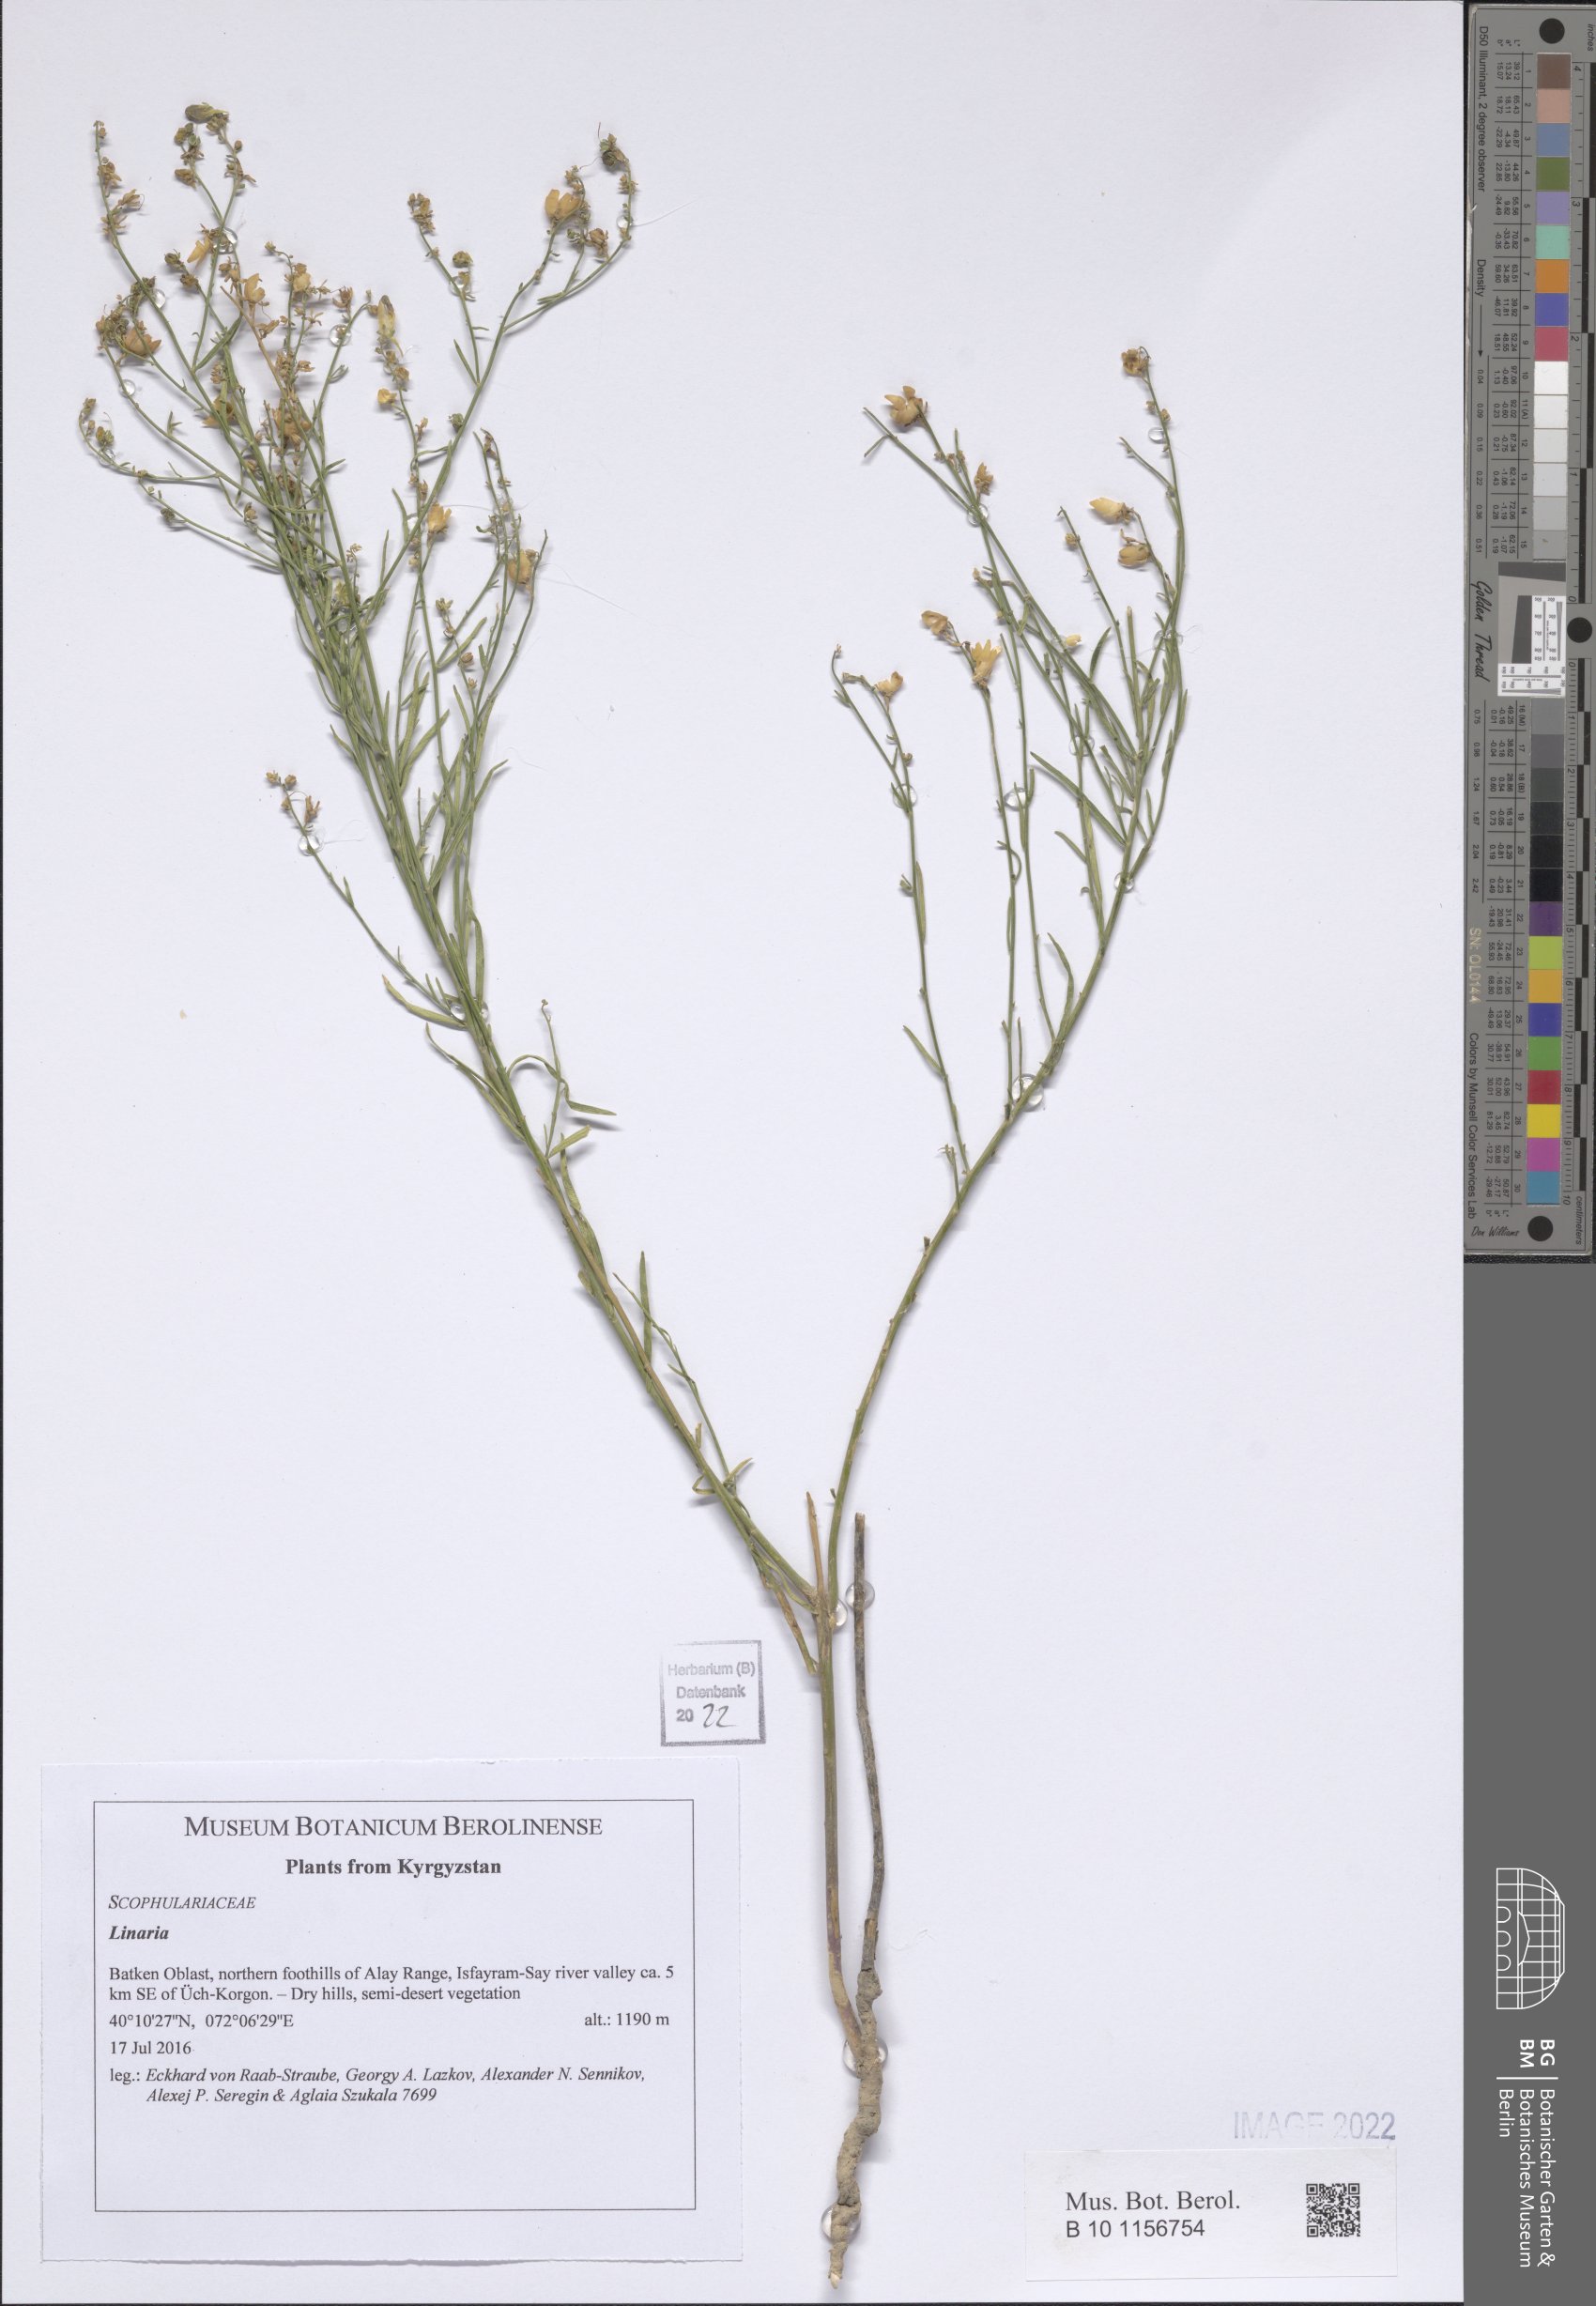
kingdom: Plantae
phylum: Tracheophyta
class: Magnoliopsida
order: Lamiales
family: Plantaginaceae
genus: Linaria
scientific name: Linaria
